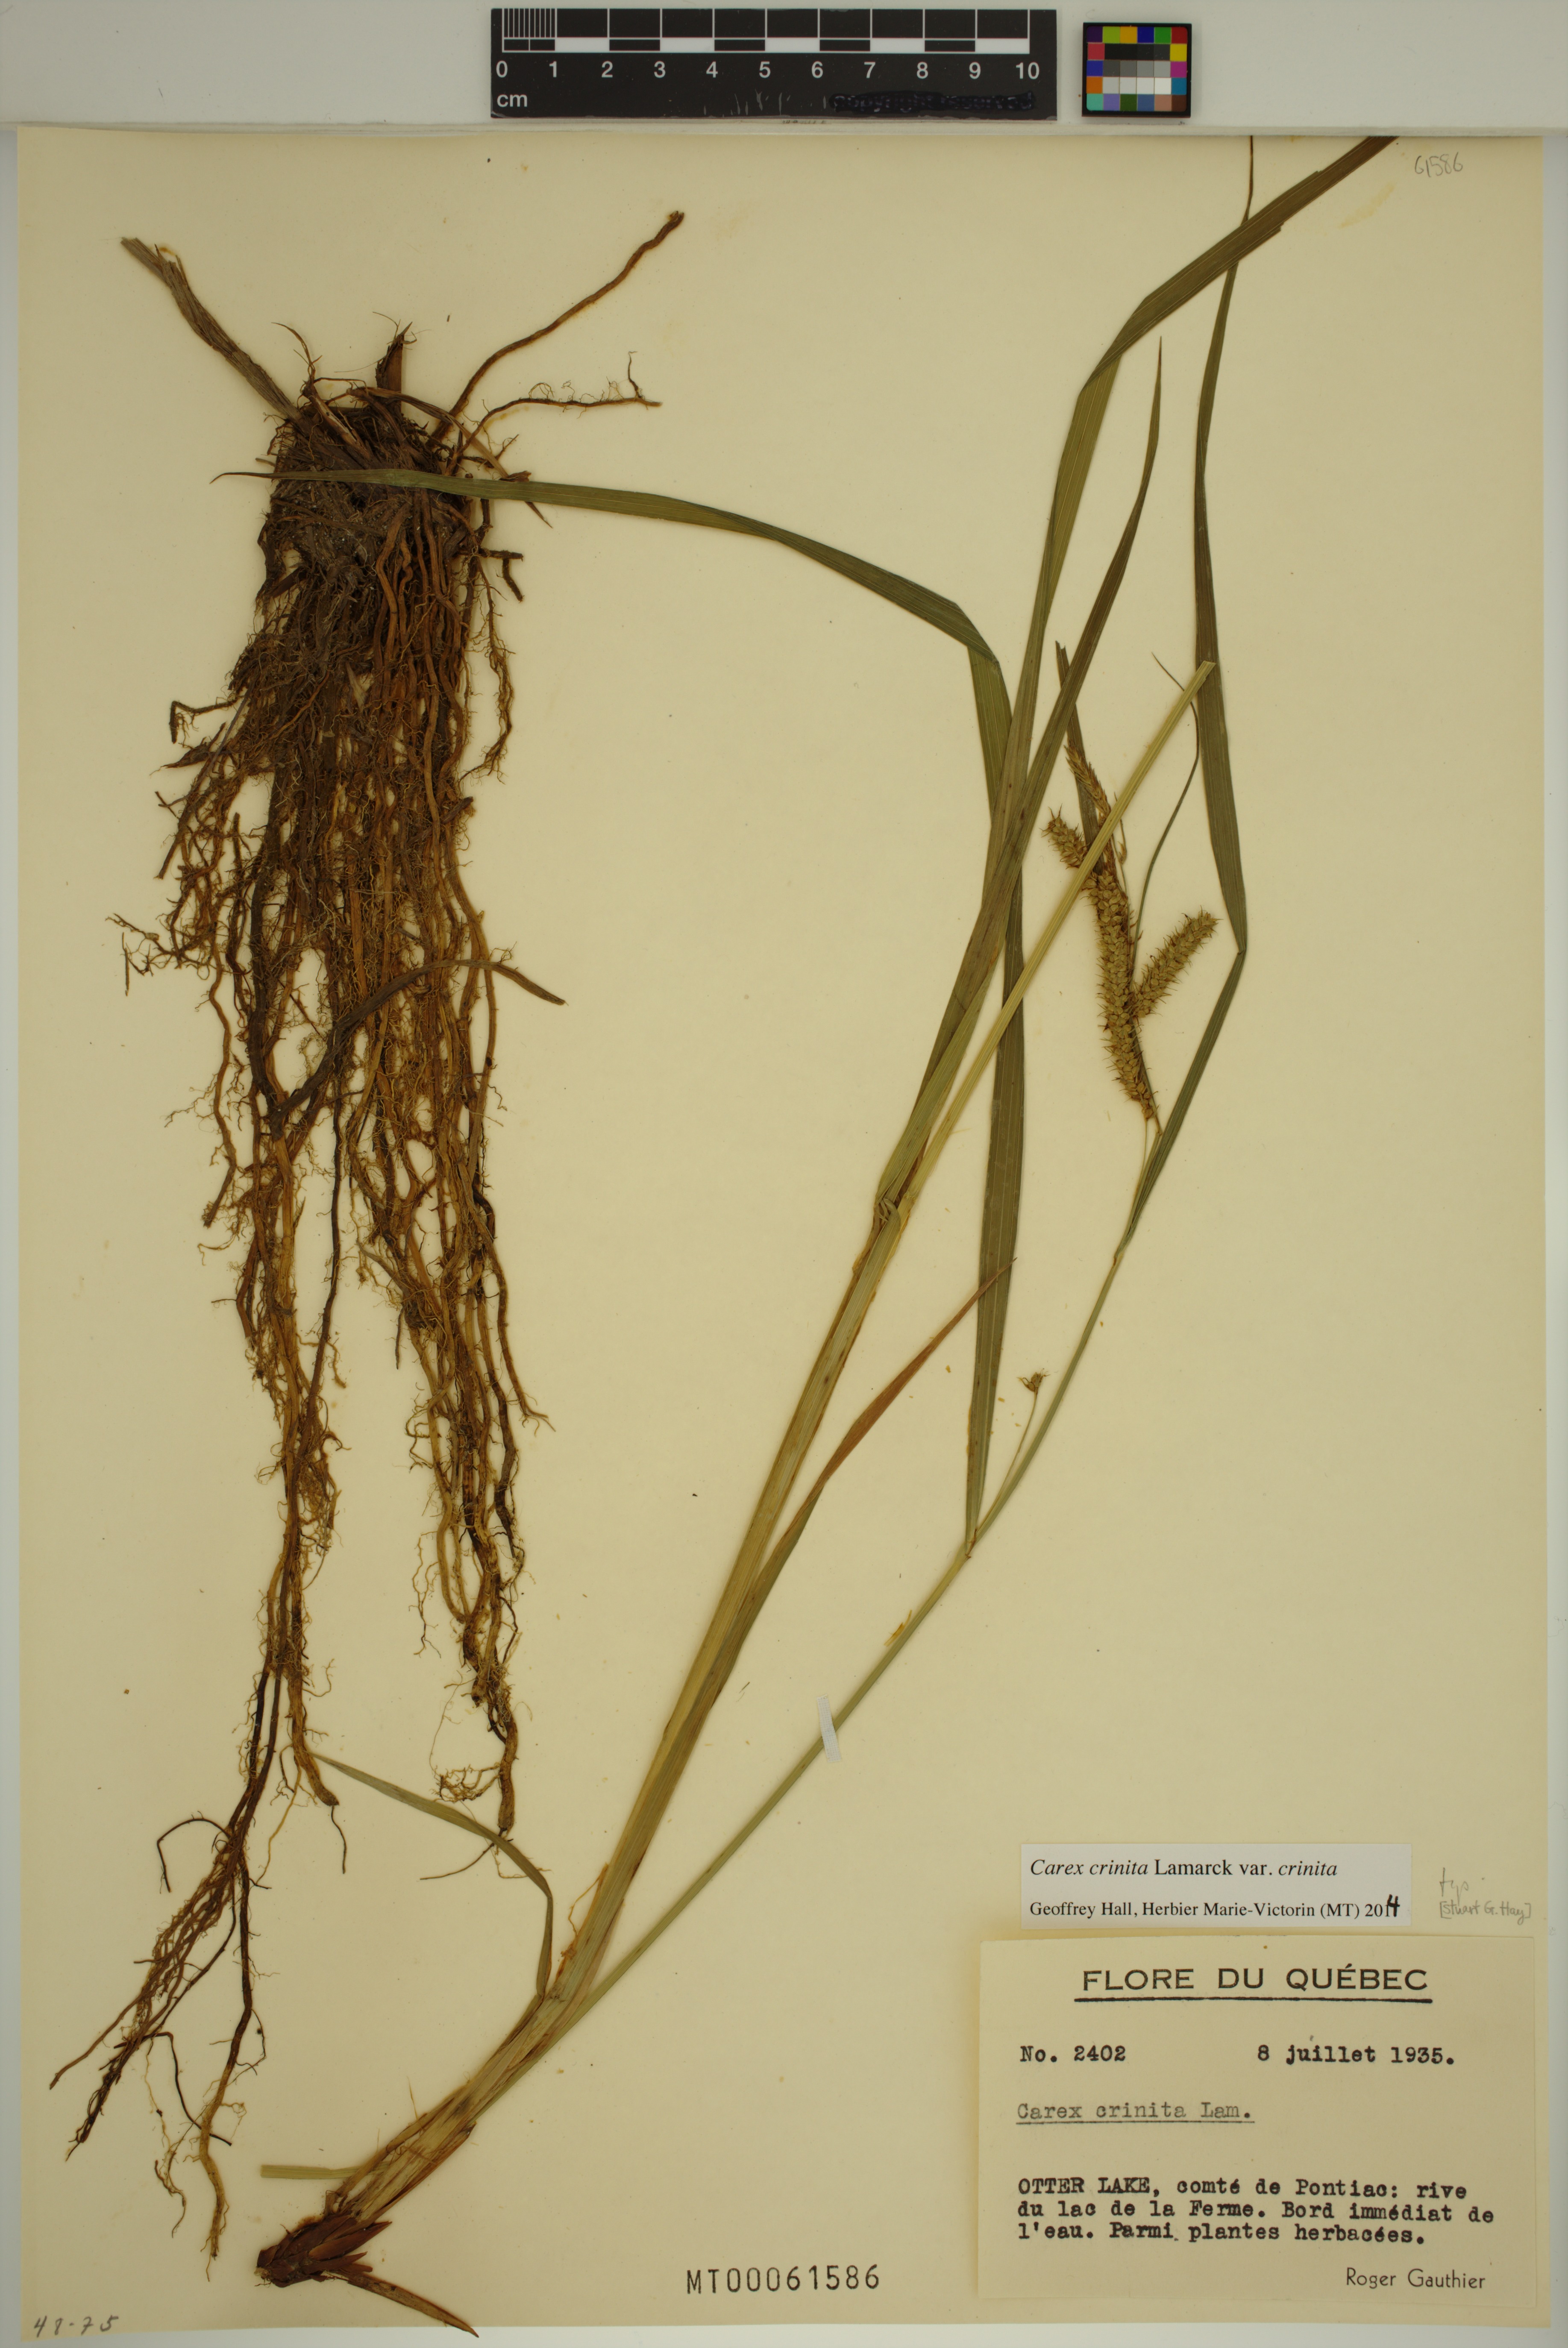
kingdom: Plantae
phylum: Tracheophyta
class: Liliopsida
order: Poales
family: Cyperaceae
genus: Carex
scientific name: Carex crinita
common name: Fringed sedge
